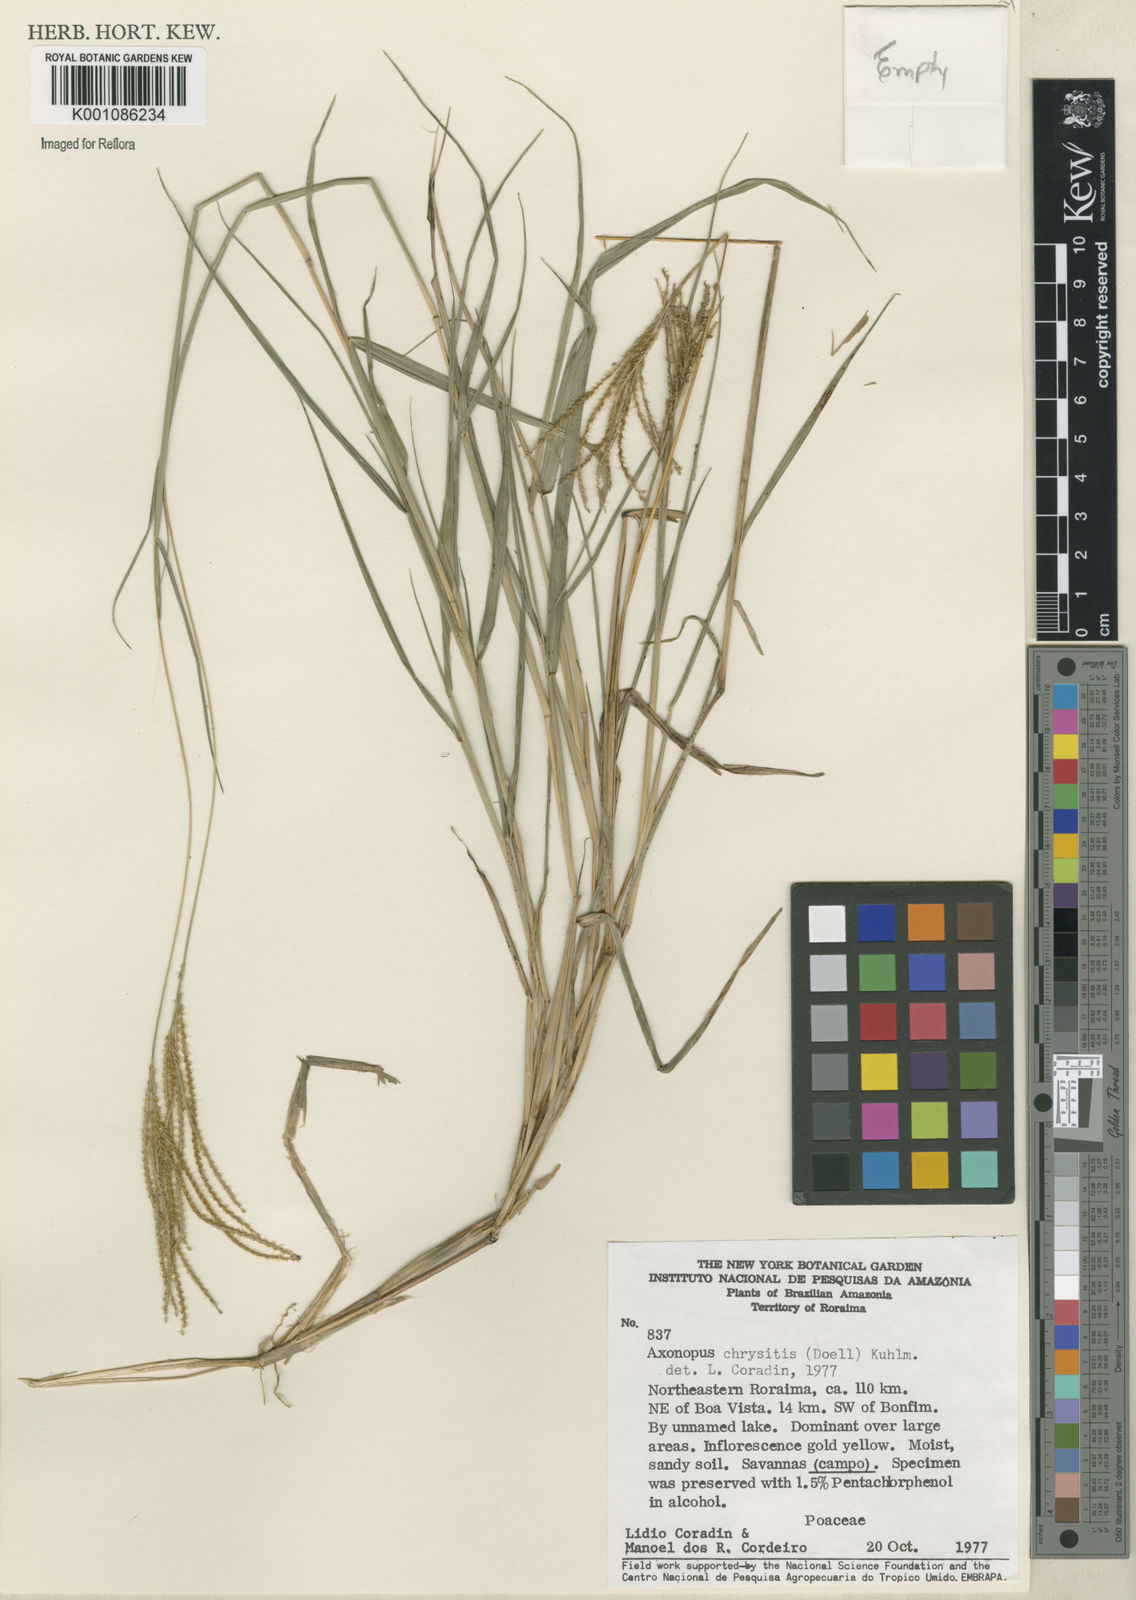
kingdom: Plantae
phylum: Tracheophyta
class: Liliopsida
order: Poales
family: Poaceae
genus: Axonopus
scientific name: Axonopus aureus
